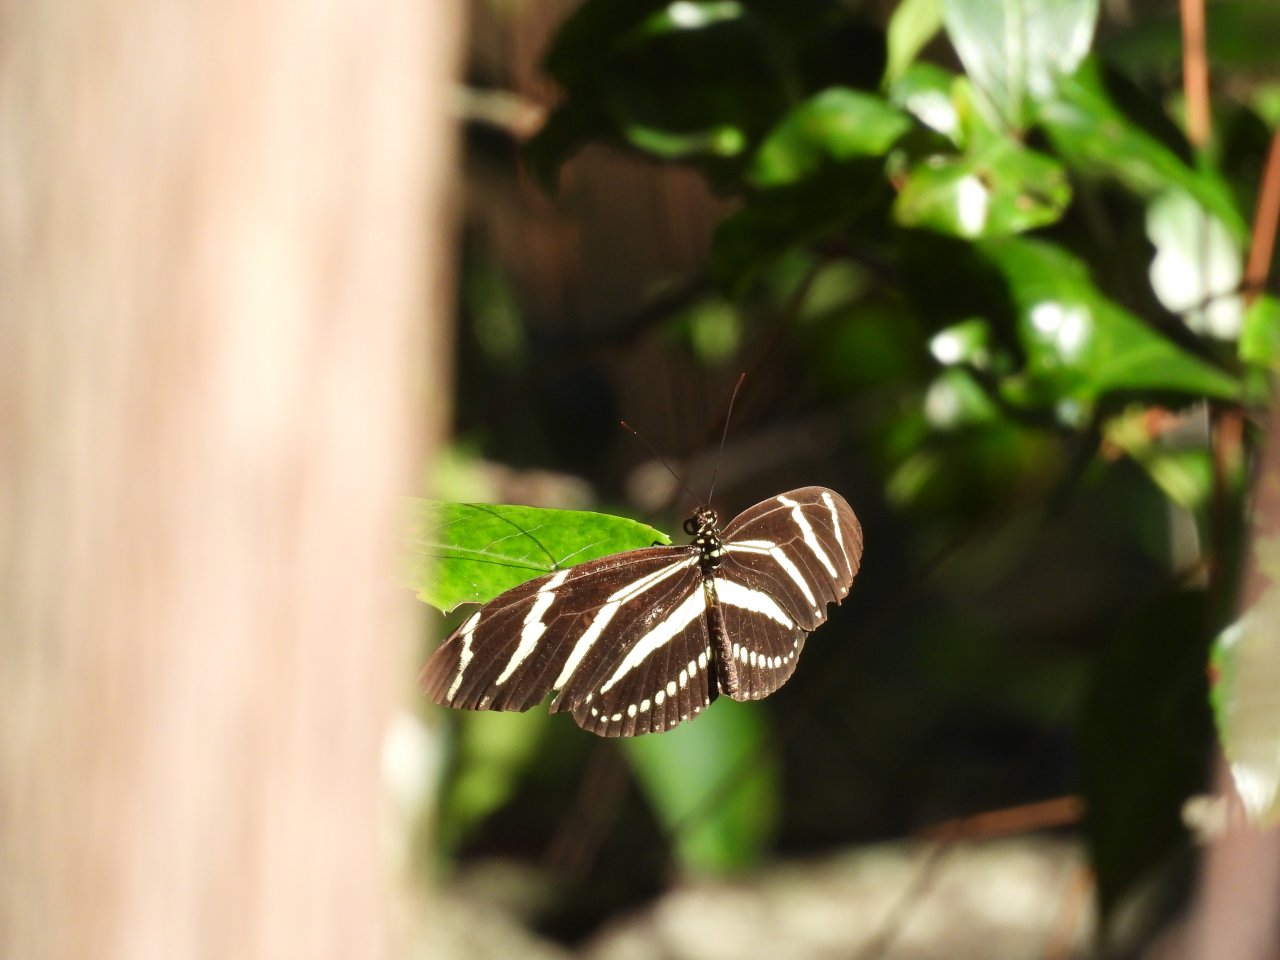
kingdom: Animalia
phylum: Arthropoda
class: Insecta
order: Lepidoptera
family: Nymphalidae
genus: Heliconius
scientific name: Heliconius charithonia
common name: Zebra Longwing
